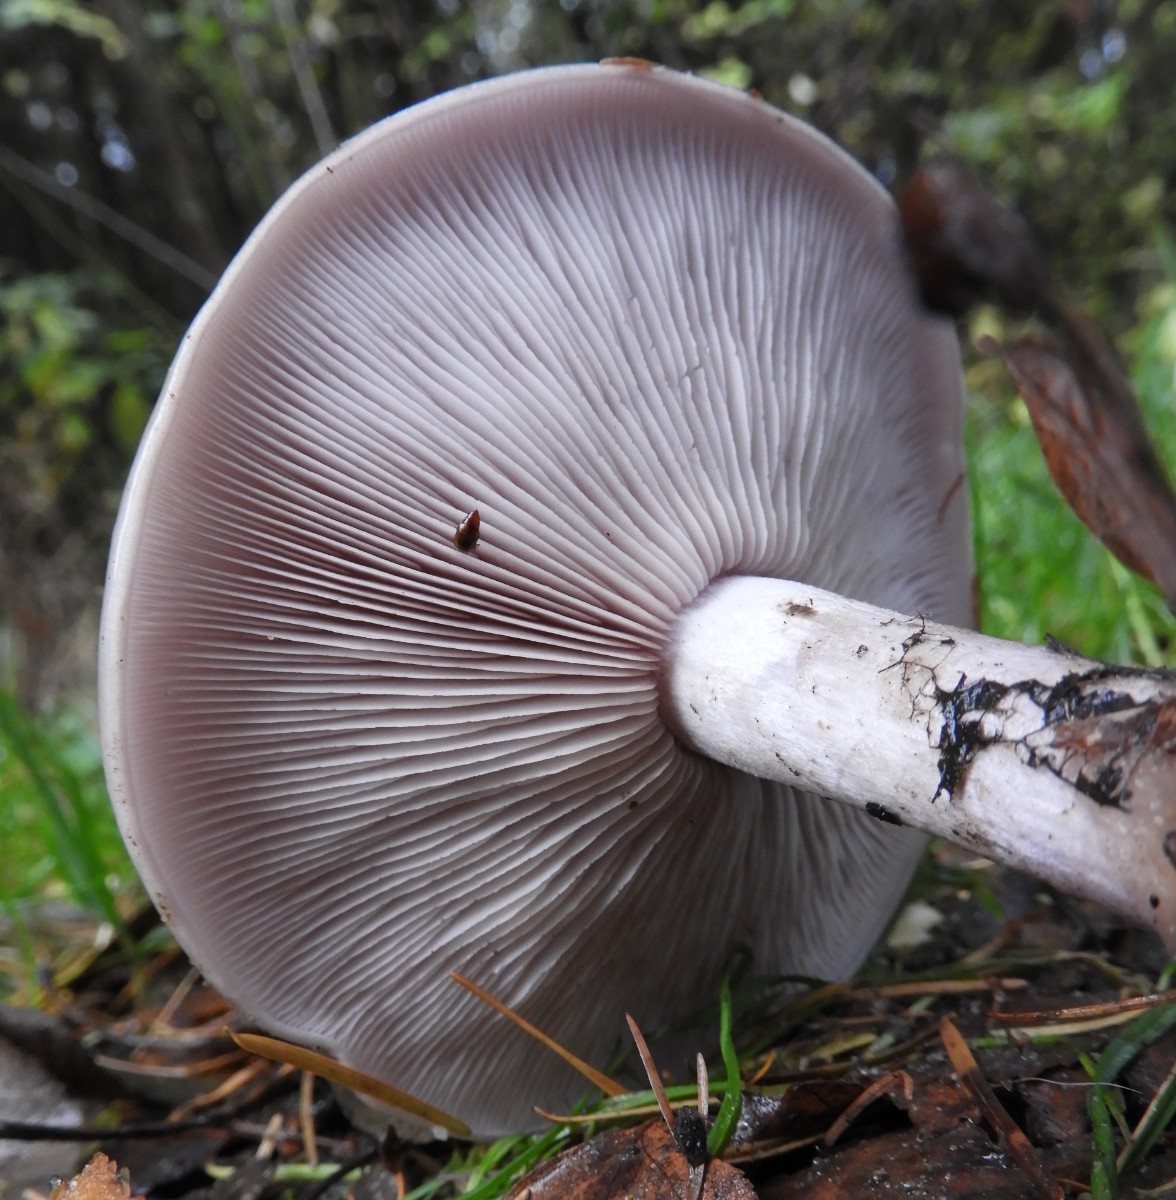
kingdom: Fungi
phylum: Basidiomycota
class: Agaricomycetes
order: Agaricales
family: Tricholomataceae
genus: Lepista
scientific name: Lepista nuda
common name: violet hekseringshat
